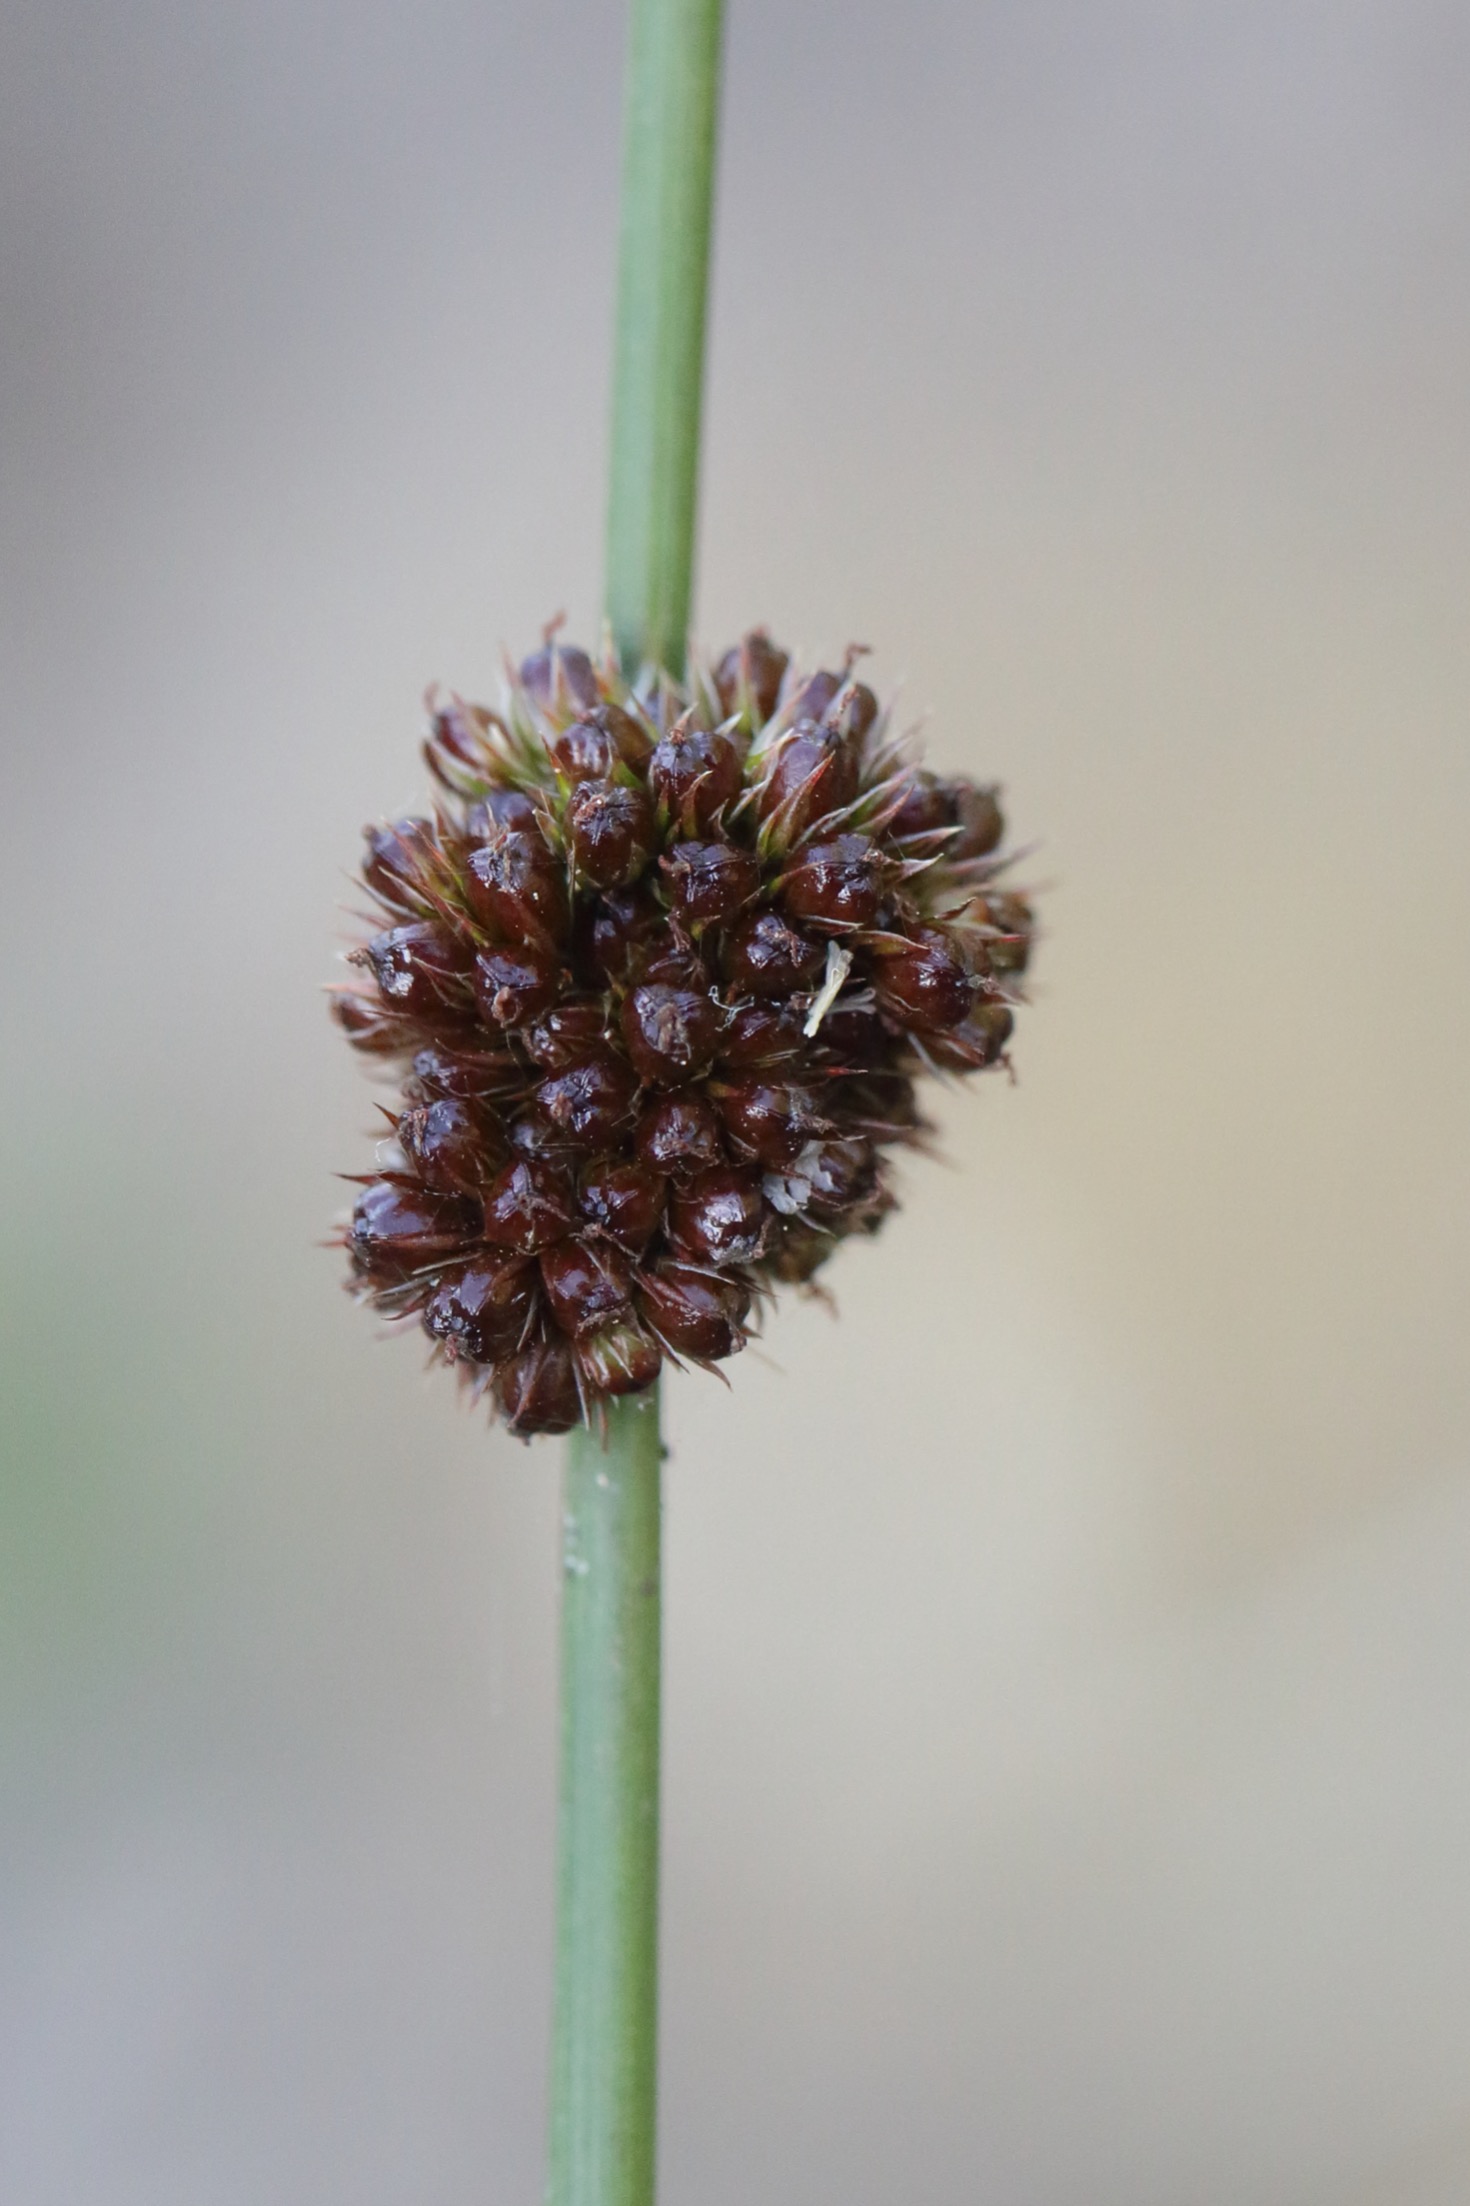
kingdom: Plantae
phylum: Tracheophyta
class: Liliopsida
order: Poales
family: Juncaceae
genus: Juncus
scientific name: Juncus effusus
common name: Lyse-siv
